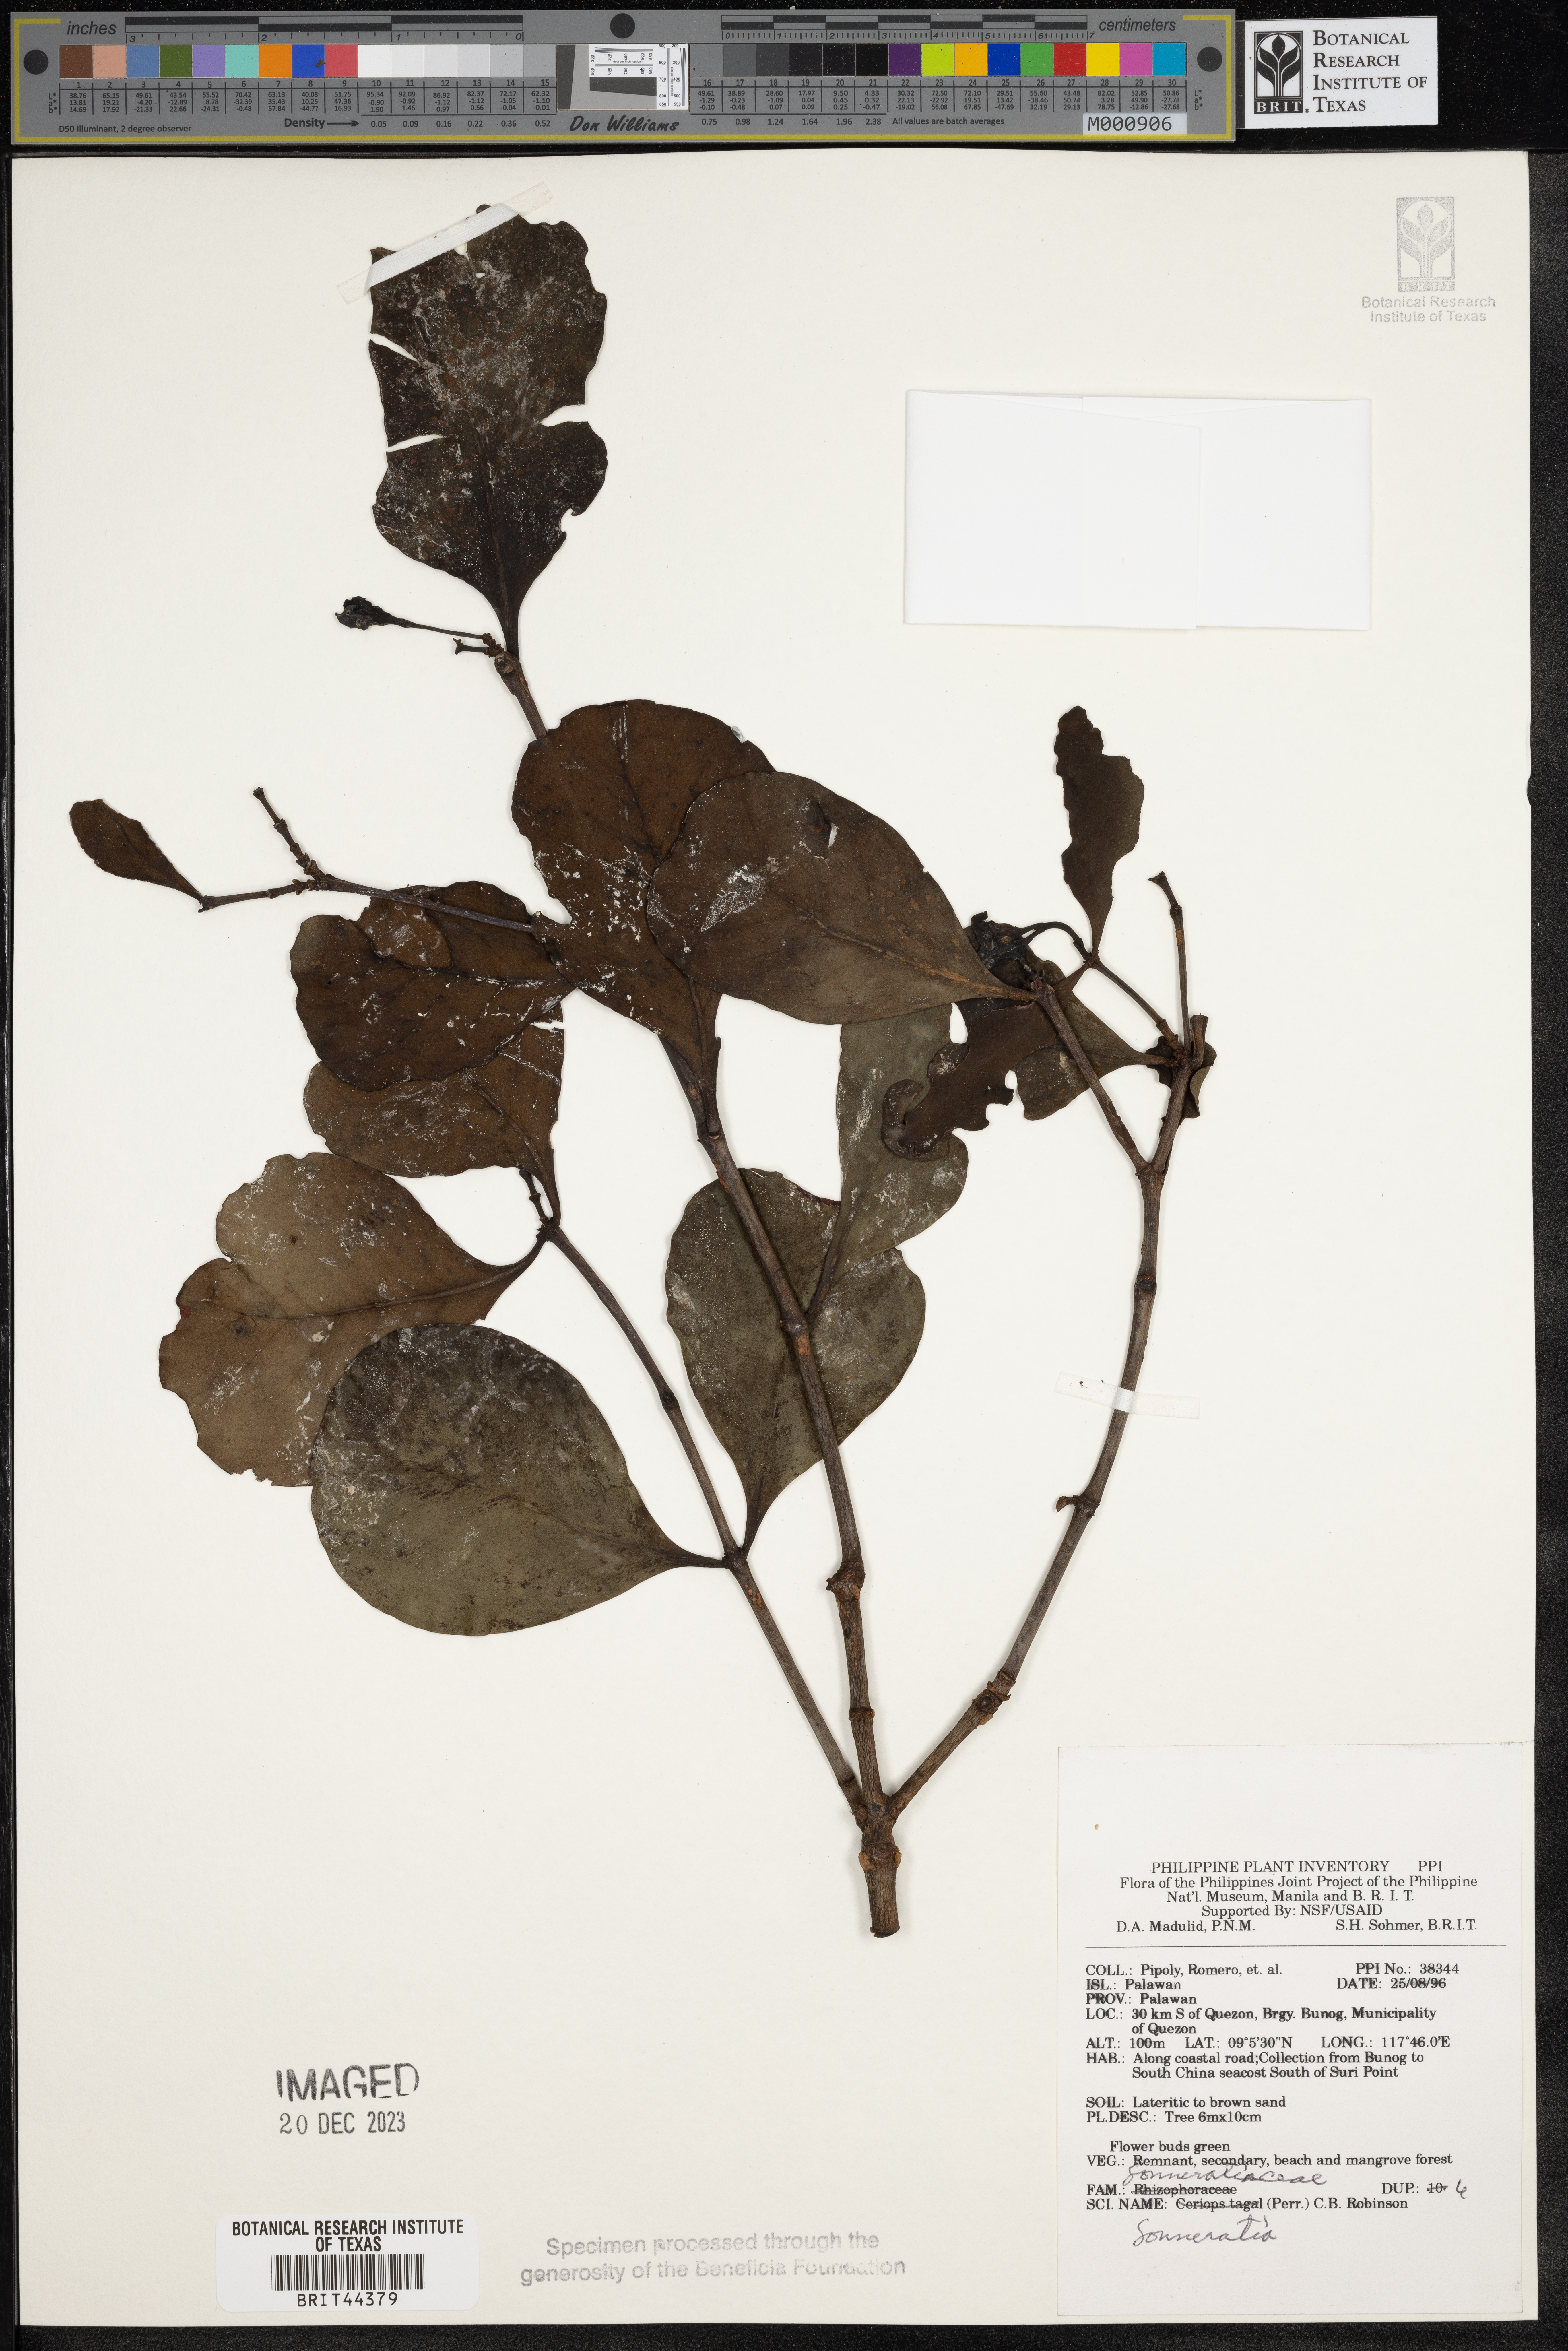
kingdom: Plantae
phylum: Tracheophyta
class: Magnoliopsida
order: Myrtales
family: Lythraceae
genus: Sonneratia
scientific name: Sonneratia
